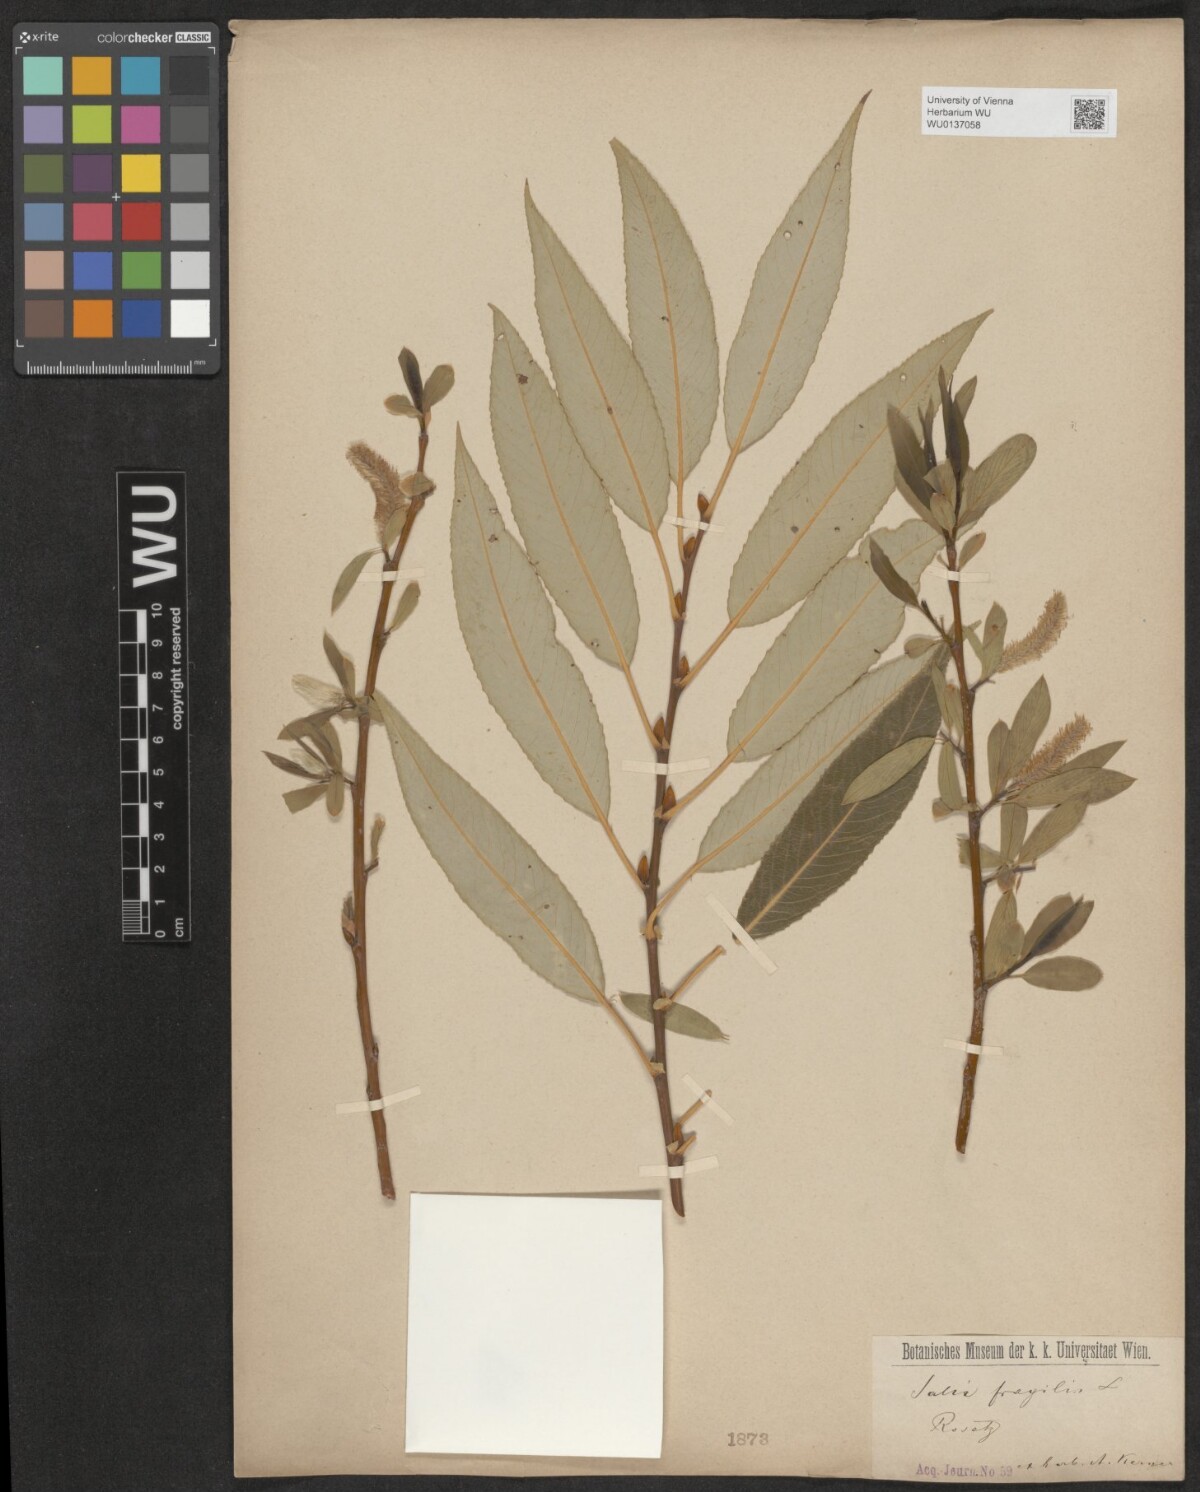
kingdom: Plantae
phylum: Tracheophyta
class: Magnoliopsida
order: Malpighiales
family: Salicaceae
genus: Salix
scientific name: Salix fragilis
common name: Crack willow
